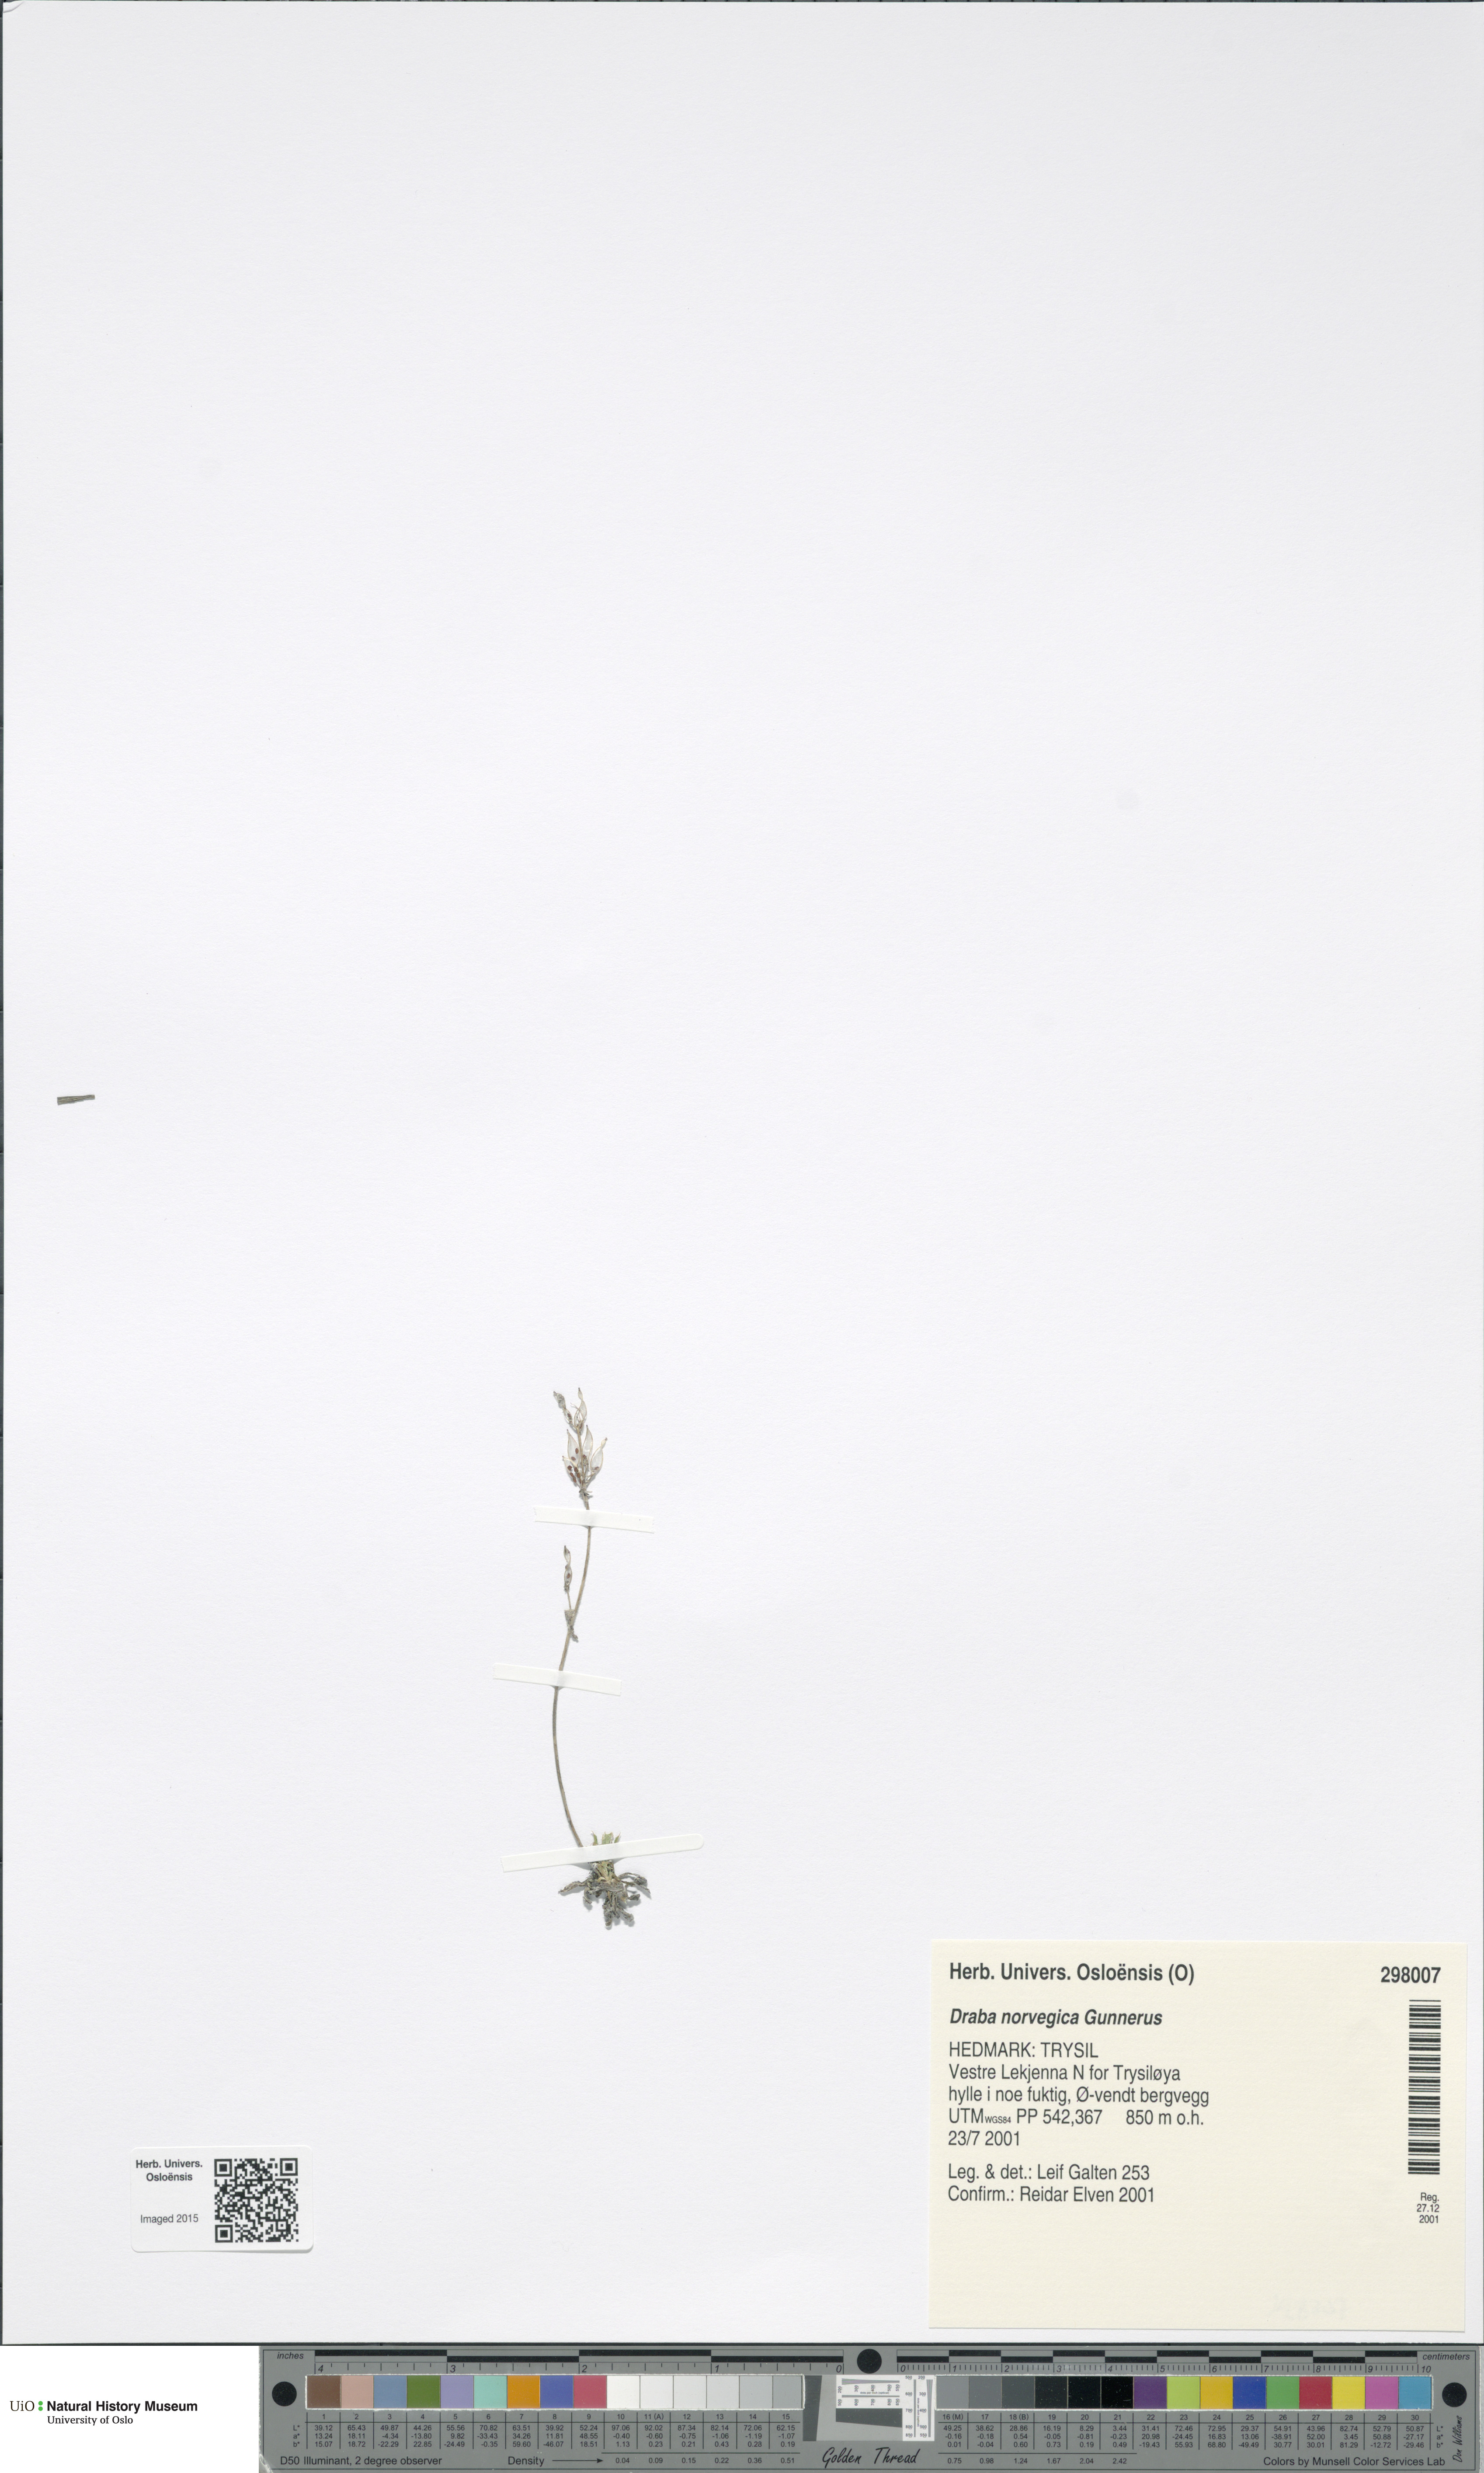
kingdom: Plantae
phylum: Tracheophyta
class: Magnoliopsida
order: Brassicales
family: Brassicaceae
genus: Draba
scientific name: Draba norvegica
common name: Rock whitlowgrass
